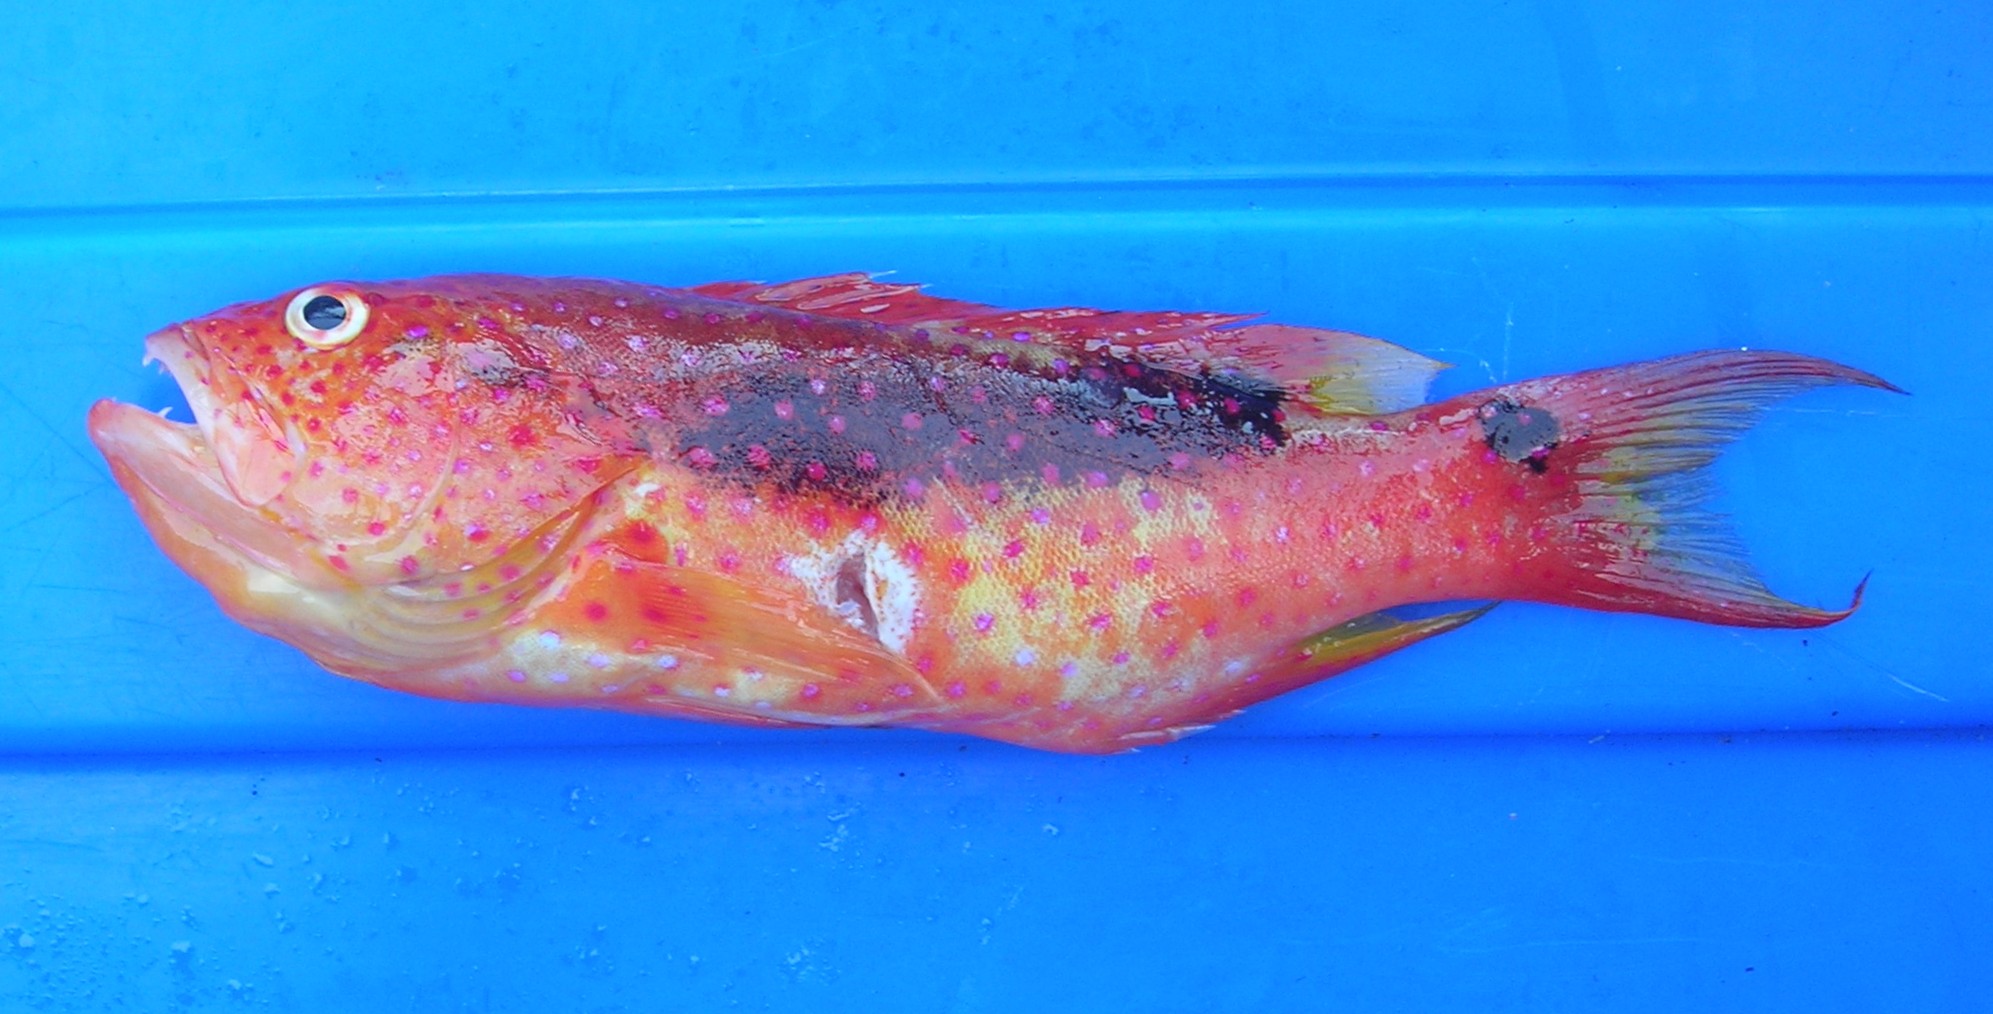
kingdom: Animalia
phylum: Chordata
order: Perciformes
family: Serranidae
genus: Variola
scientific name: Variola louti
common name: Yellow-edged lyretail
